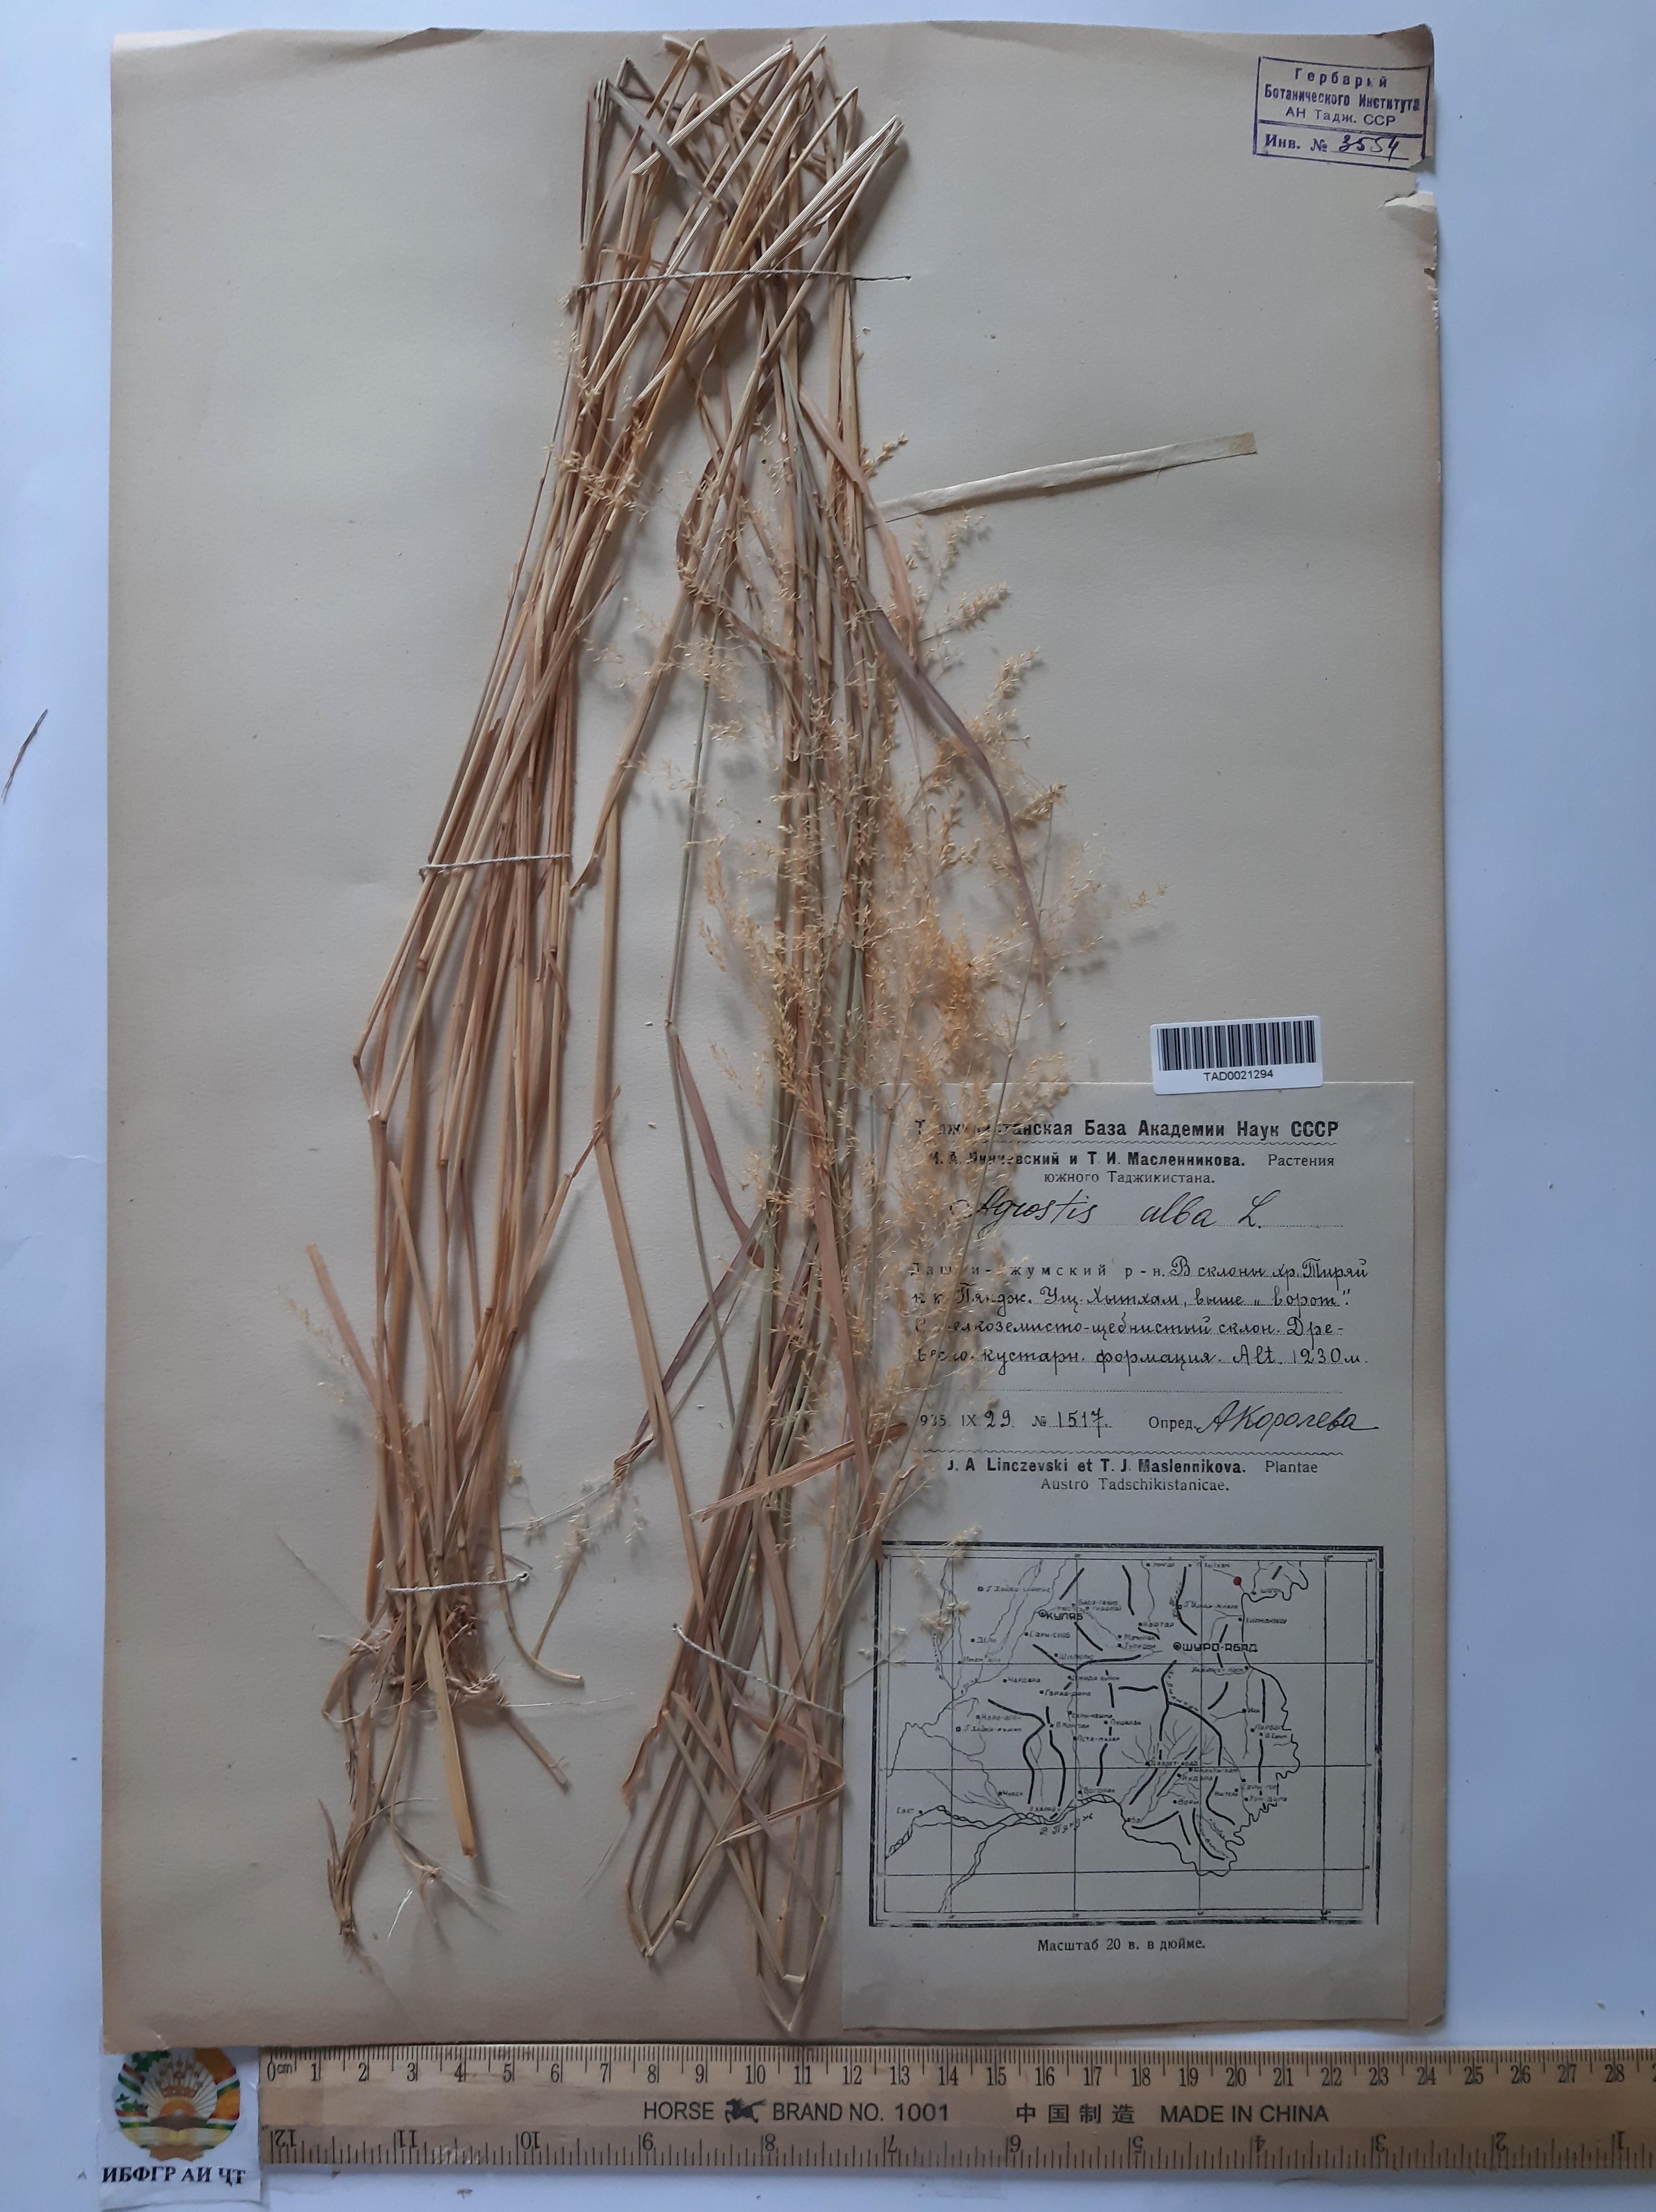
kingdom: Plantae
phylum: Tracheophyta
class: Liliopsida
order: Poales
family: Poaceae
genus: Poa
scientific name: Poa nemoralis
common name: Wood bluegrass
